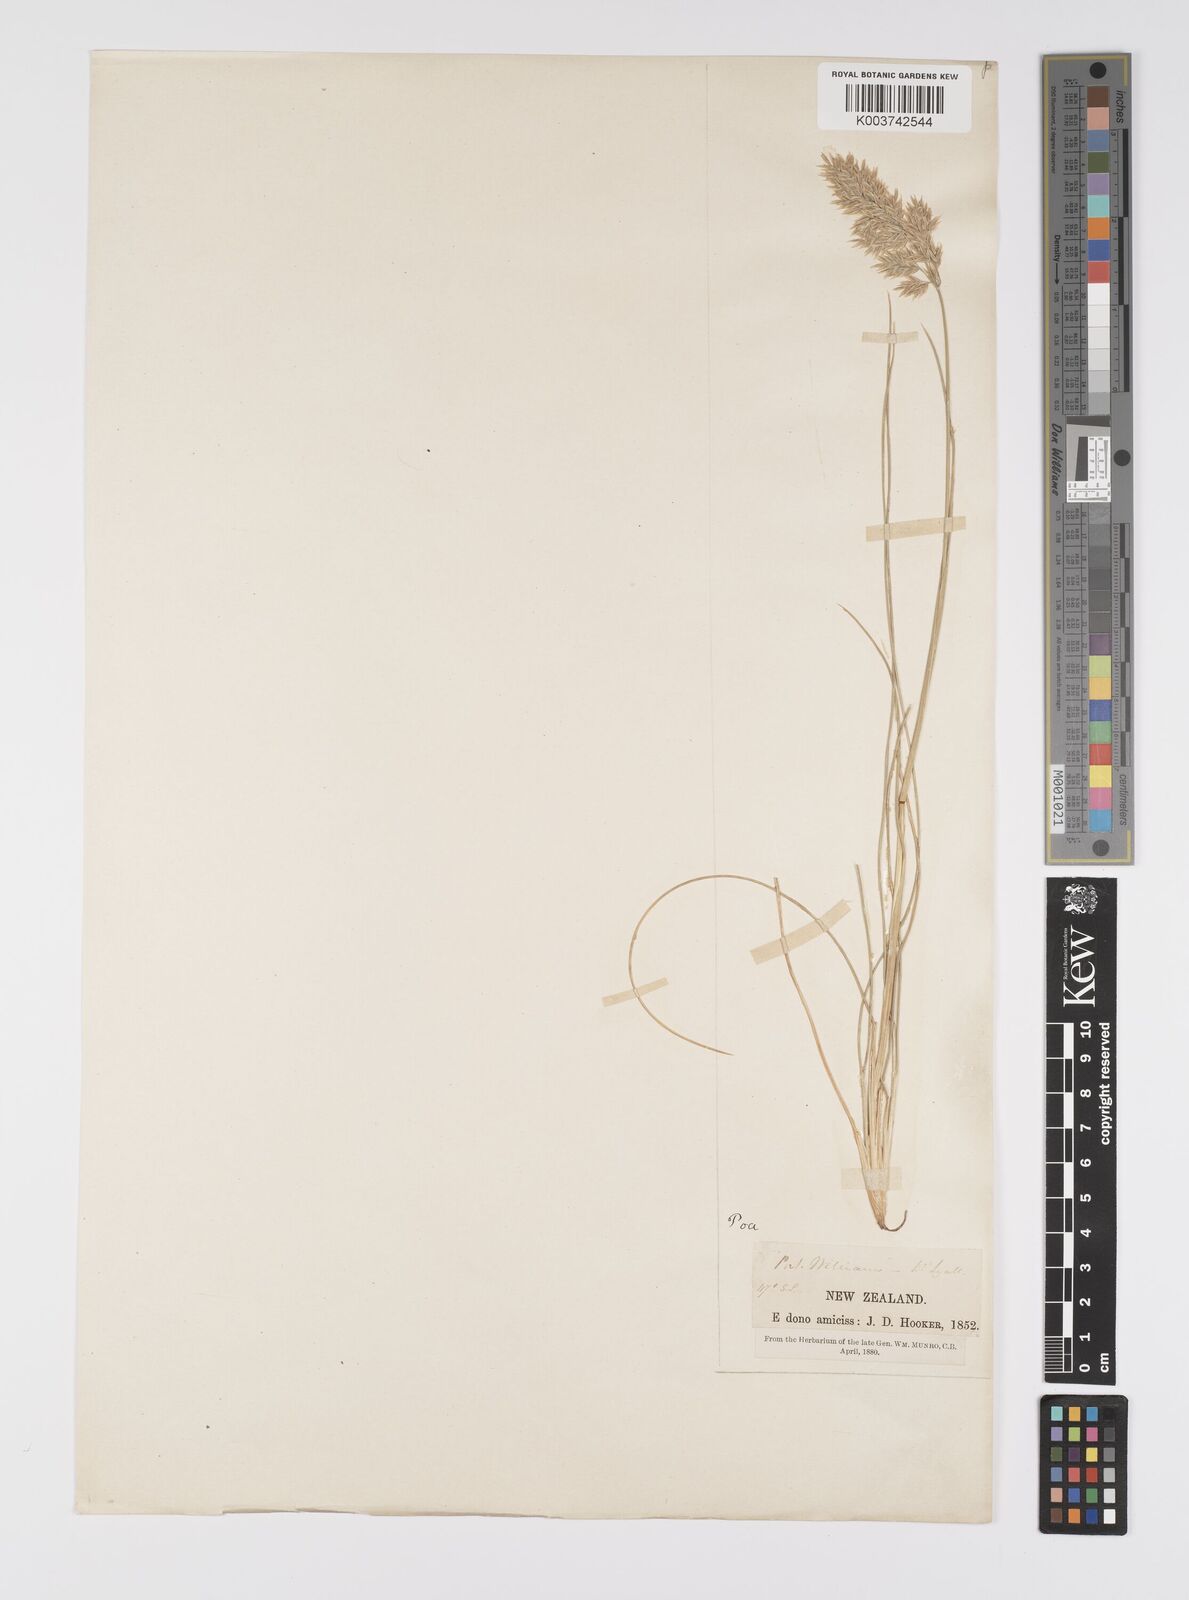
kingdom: Plantae
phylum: Tracheophyta
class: Liliopsida
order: Poales
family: Poaceae
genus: Poa
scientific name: Poa astonii
